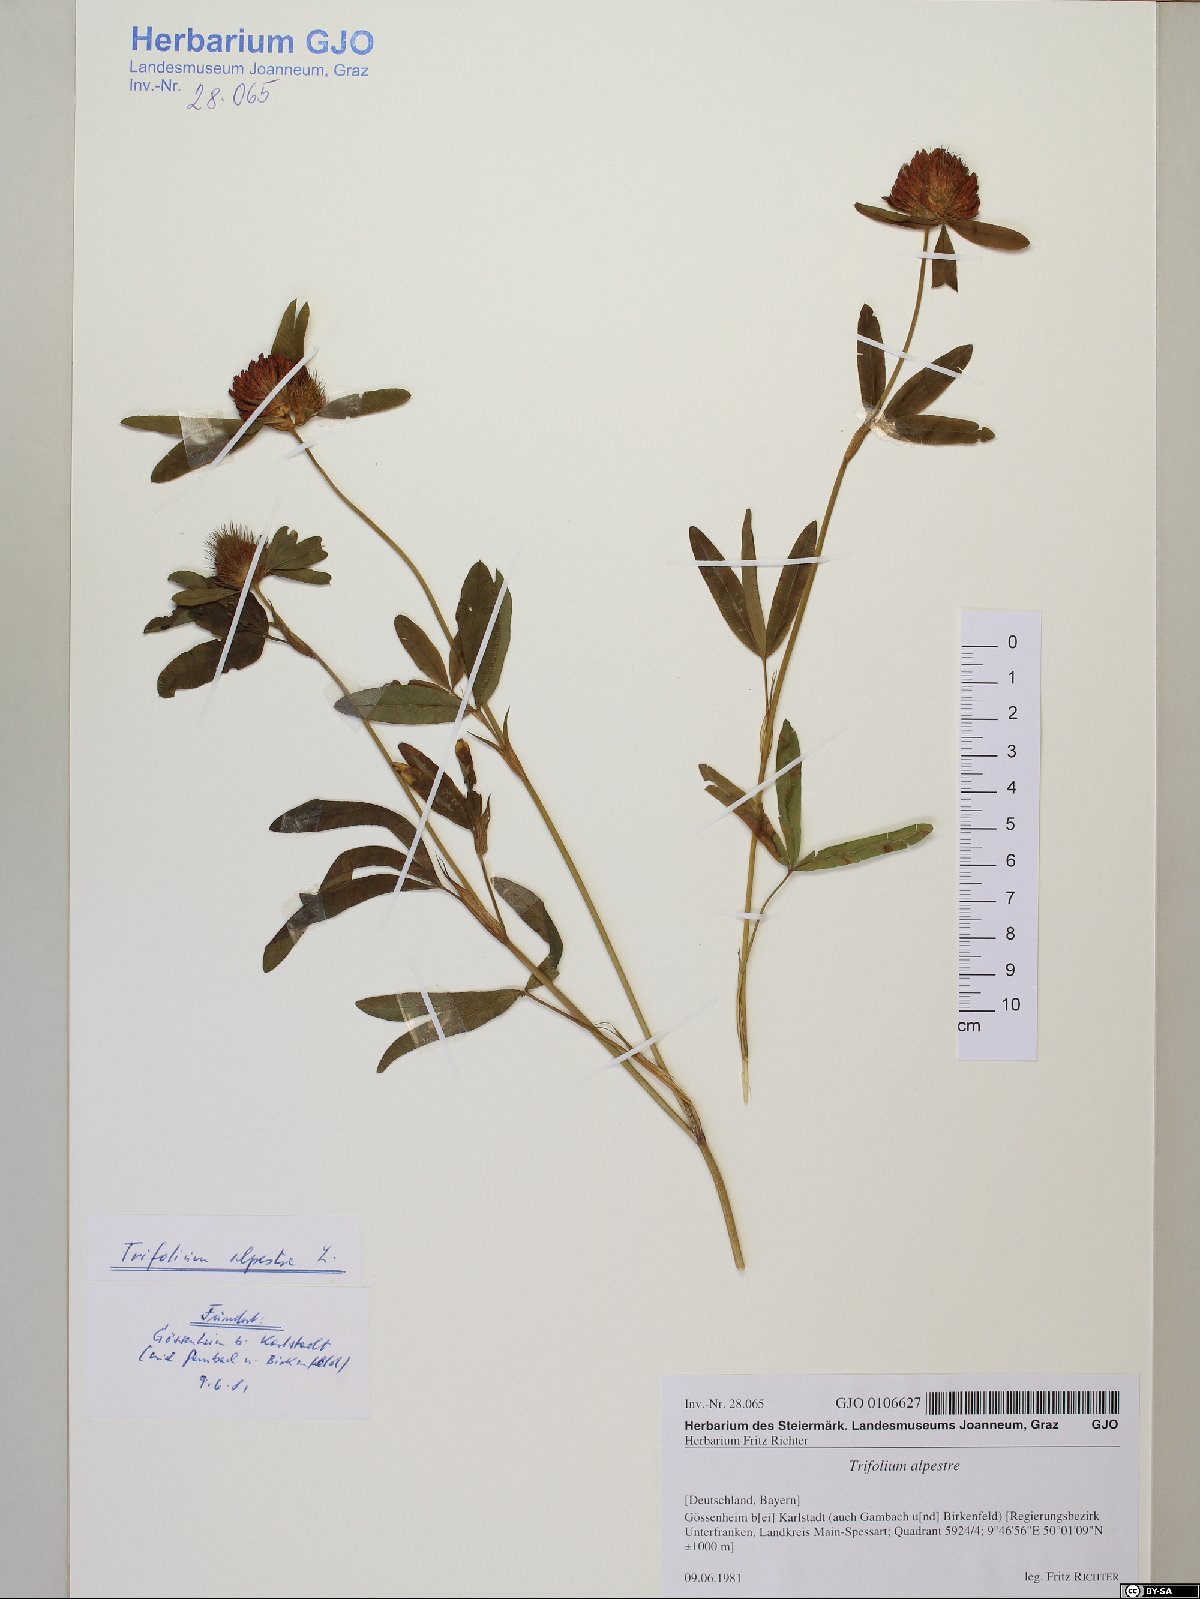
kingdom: Plantae
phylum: Tracheophyta
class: Magnoliopsida
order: Fabales
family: Fabaceae
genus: Trifolium
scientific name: Trifolium alpestre
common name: Owl-head clover
